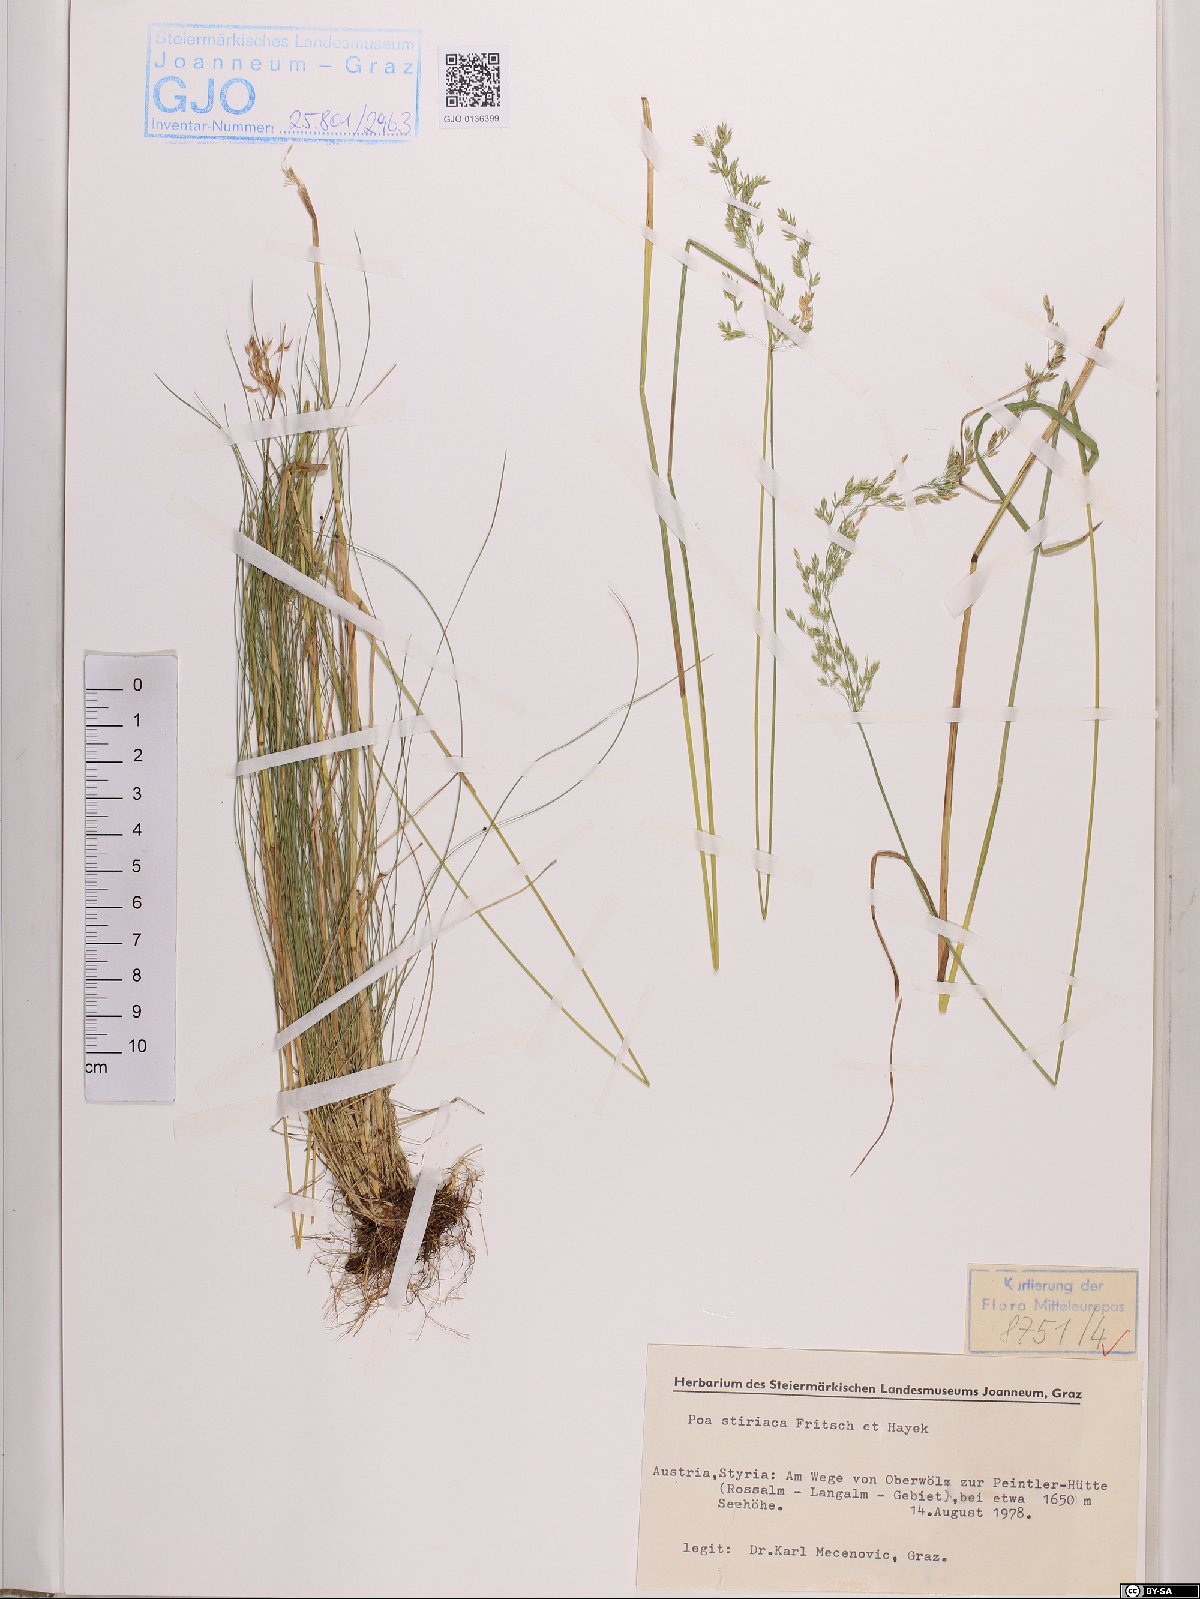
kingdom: Plantae
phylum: Tracheophyta
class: Liliopsida
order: Poales
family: Poaceae
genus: Poa
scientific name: Poa stiriaca
